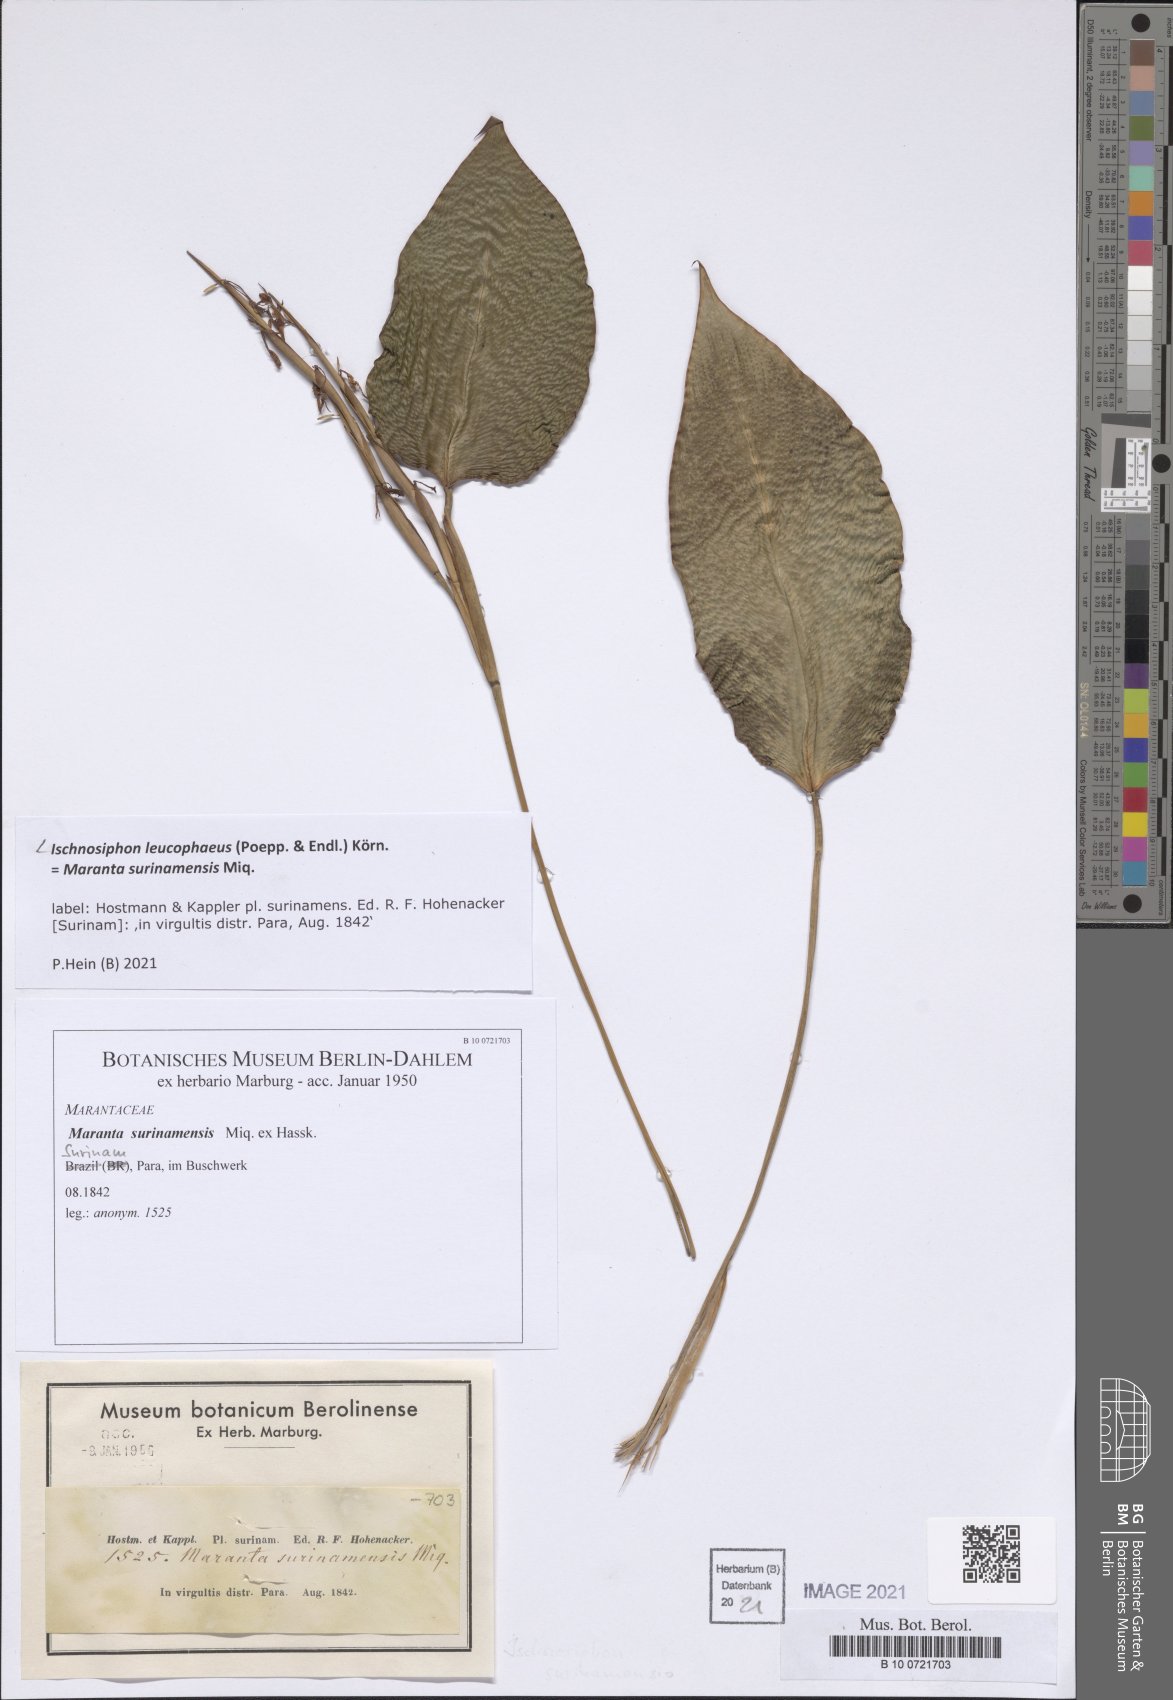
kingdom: Plantae
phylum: Tracheophyta
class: Liliopsida
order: Zingiberales
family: Marantaceae
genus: Ischnosiphon
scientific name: Ischnosiphon leucophaeus
